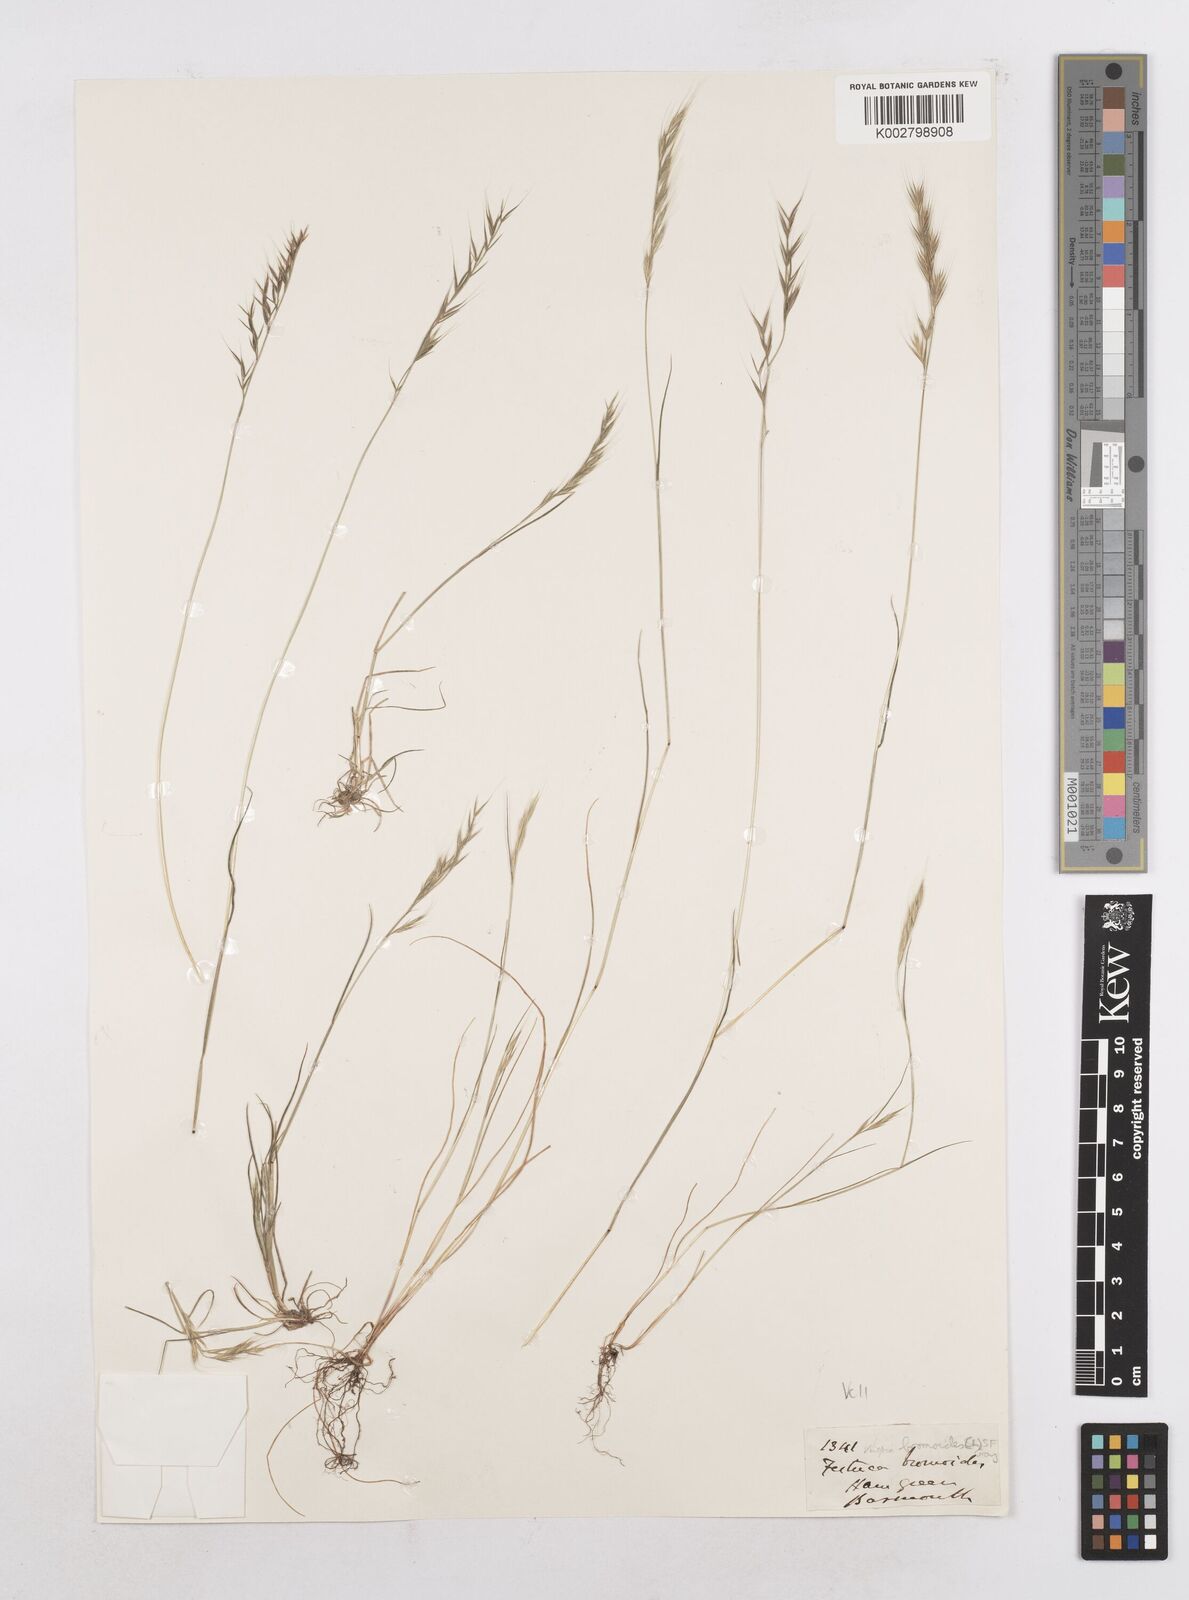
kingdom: Plantae
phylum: Tracheophyta
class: Liliopsida
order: Poales
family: Poaceae
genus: Festuca
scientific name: Festuca bromoides
